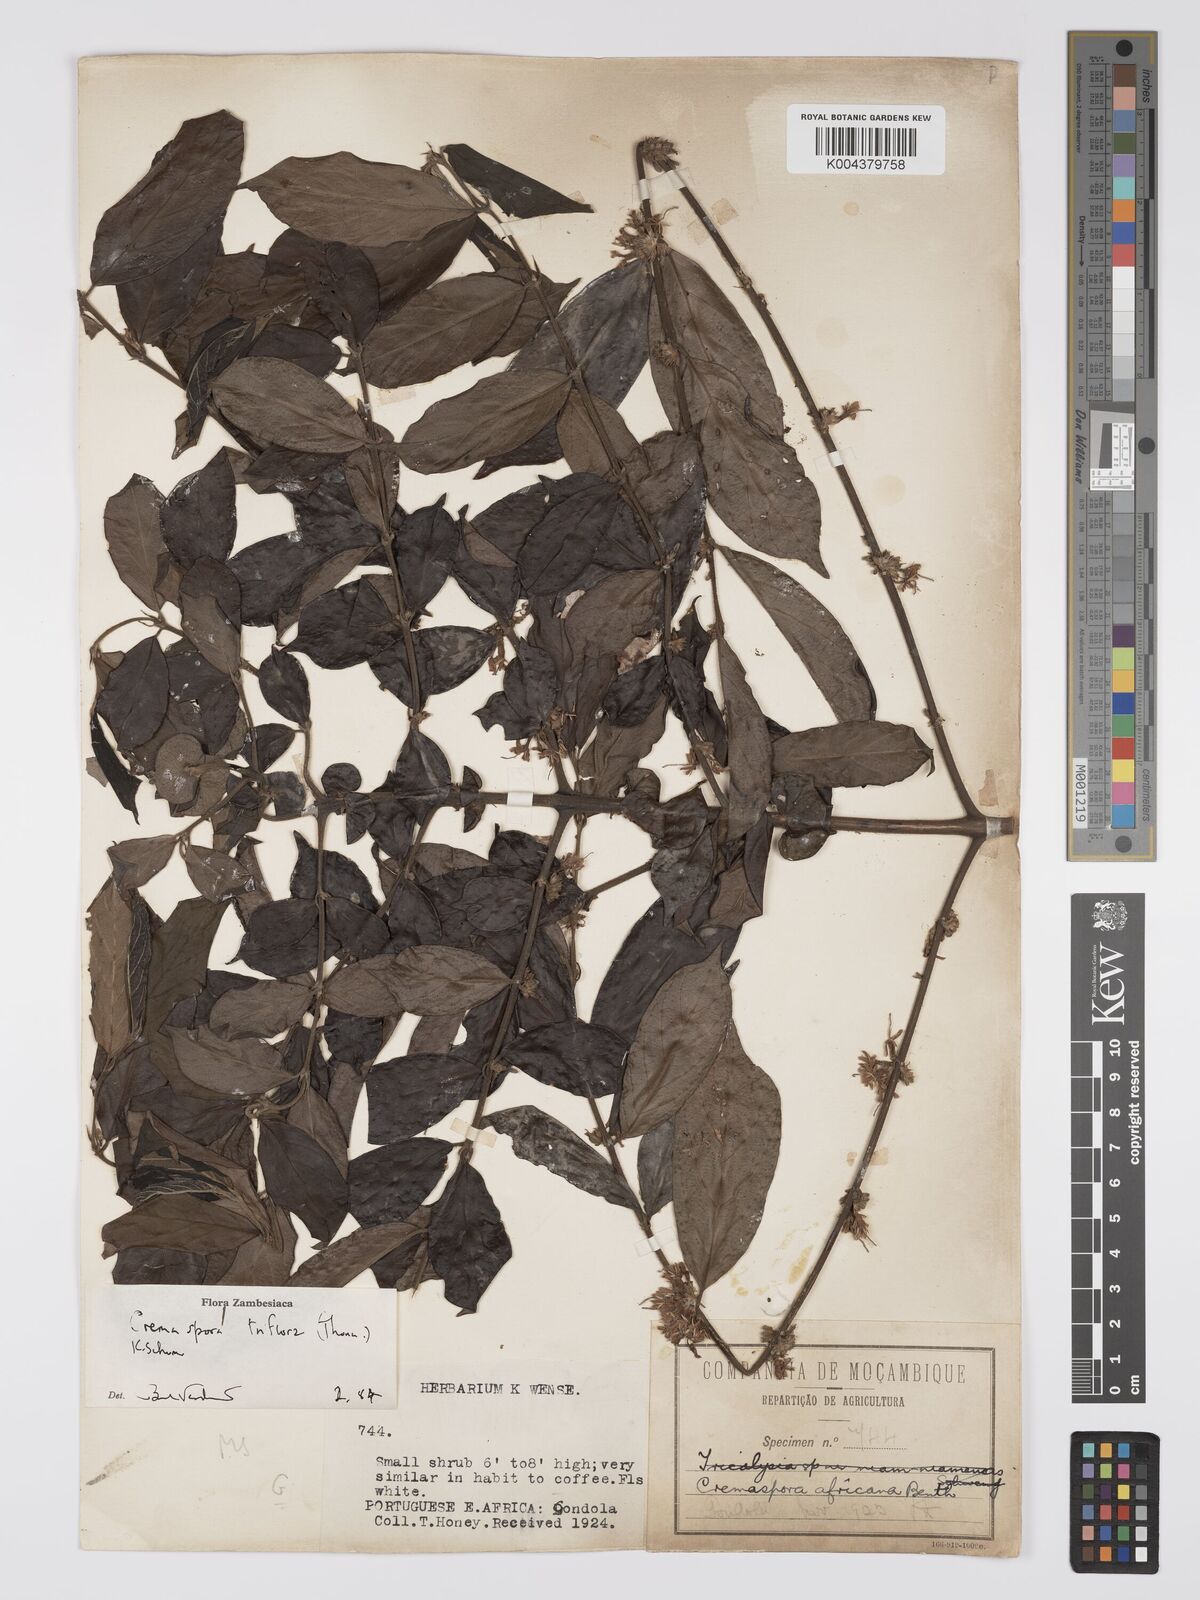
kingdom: Plantae
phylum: Tracheophyta
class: Magnoliopsida
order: Gentianales
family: Rubiaceae
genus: Cremaspora
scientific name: Cremaspora triflora
